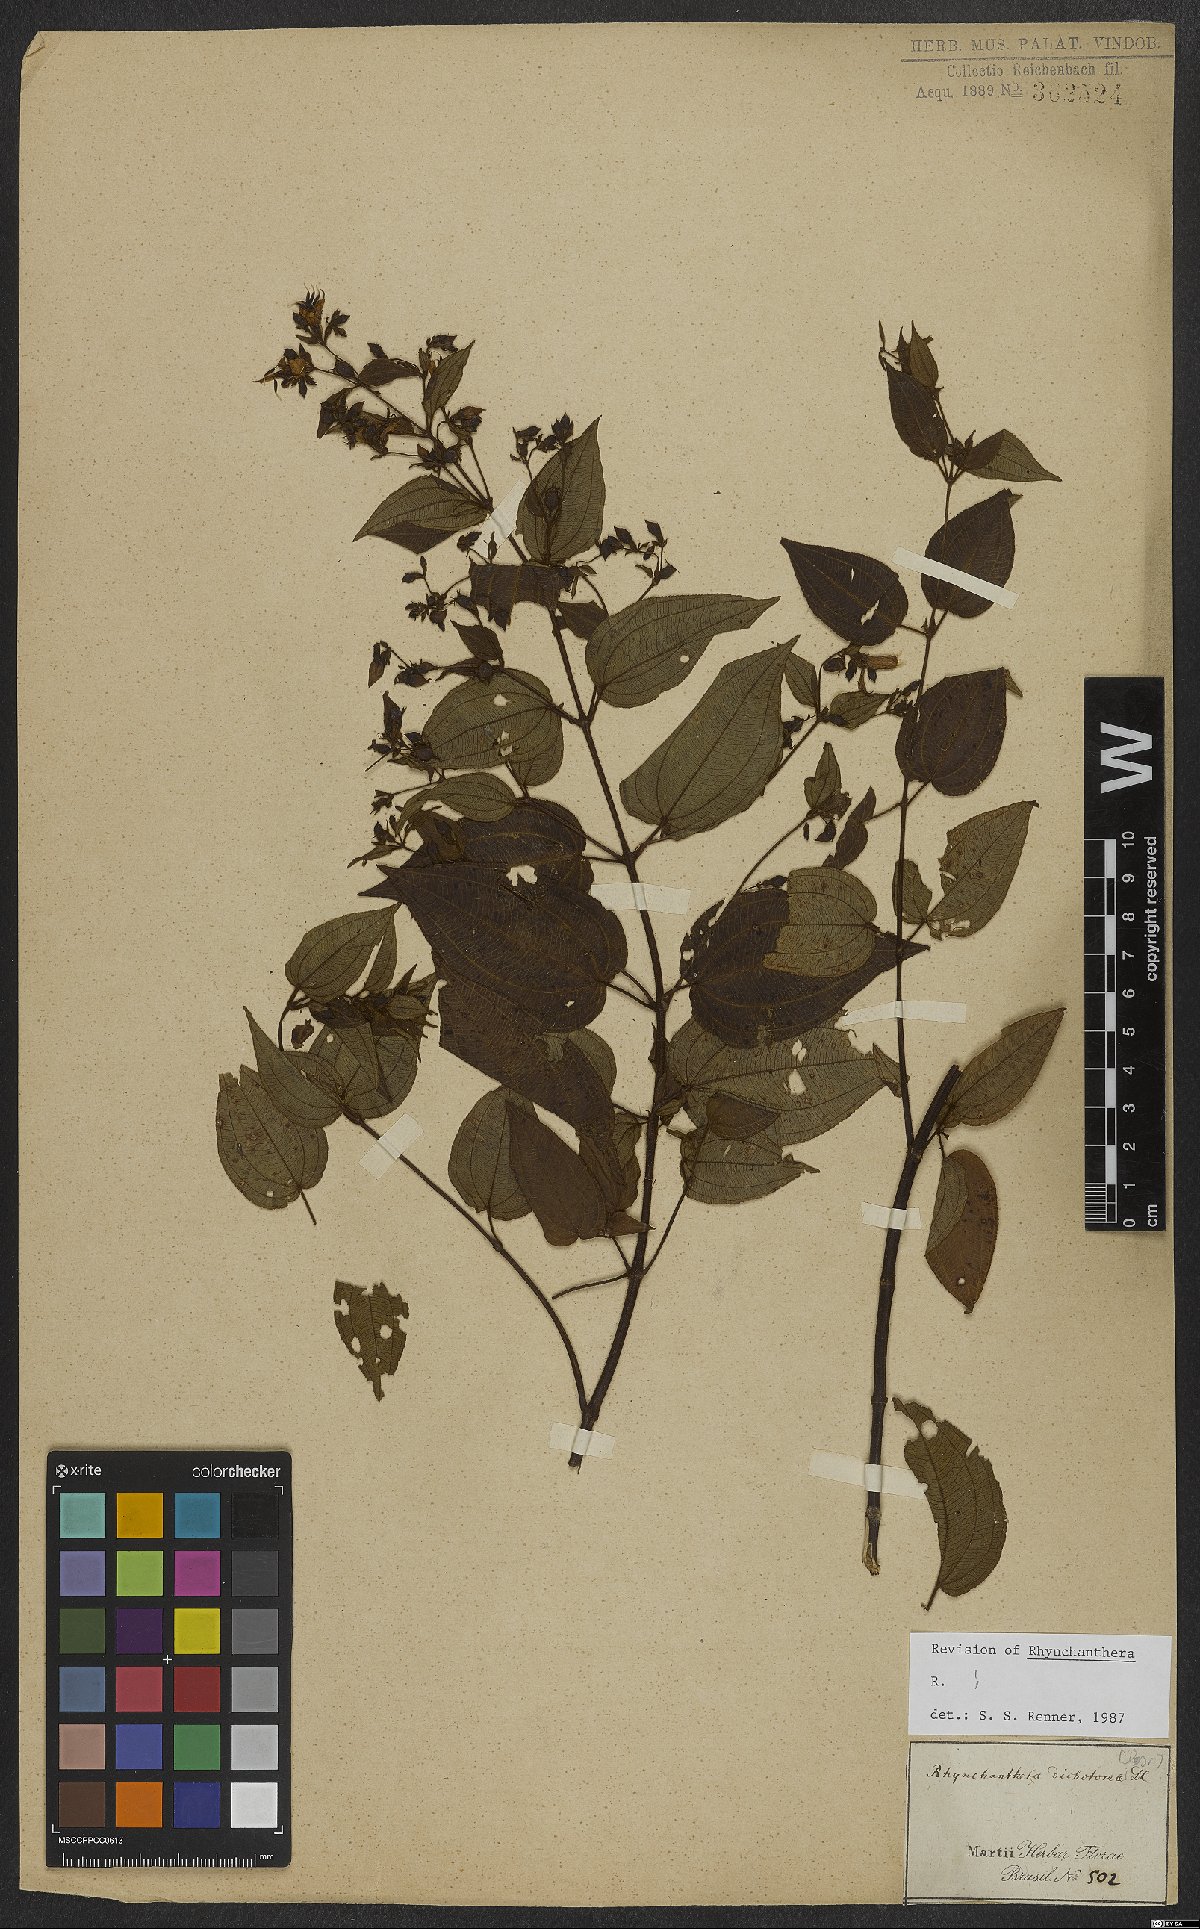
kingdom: Plantae
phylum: Tracheophyta
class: Magnoliopsida
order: Myrtales
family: Melastomataceae
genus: Rhynchanthera
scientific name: Rhynchanthera dichotoma
